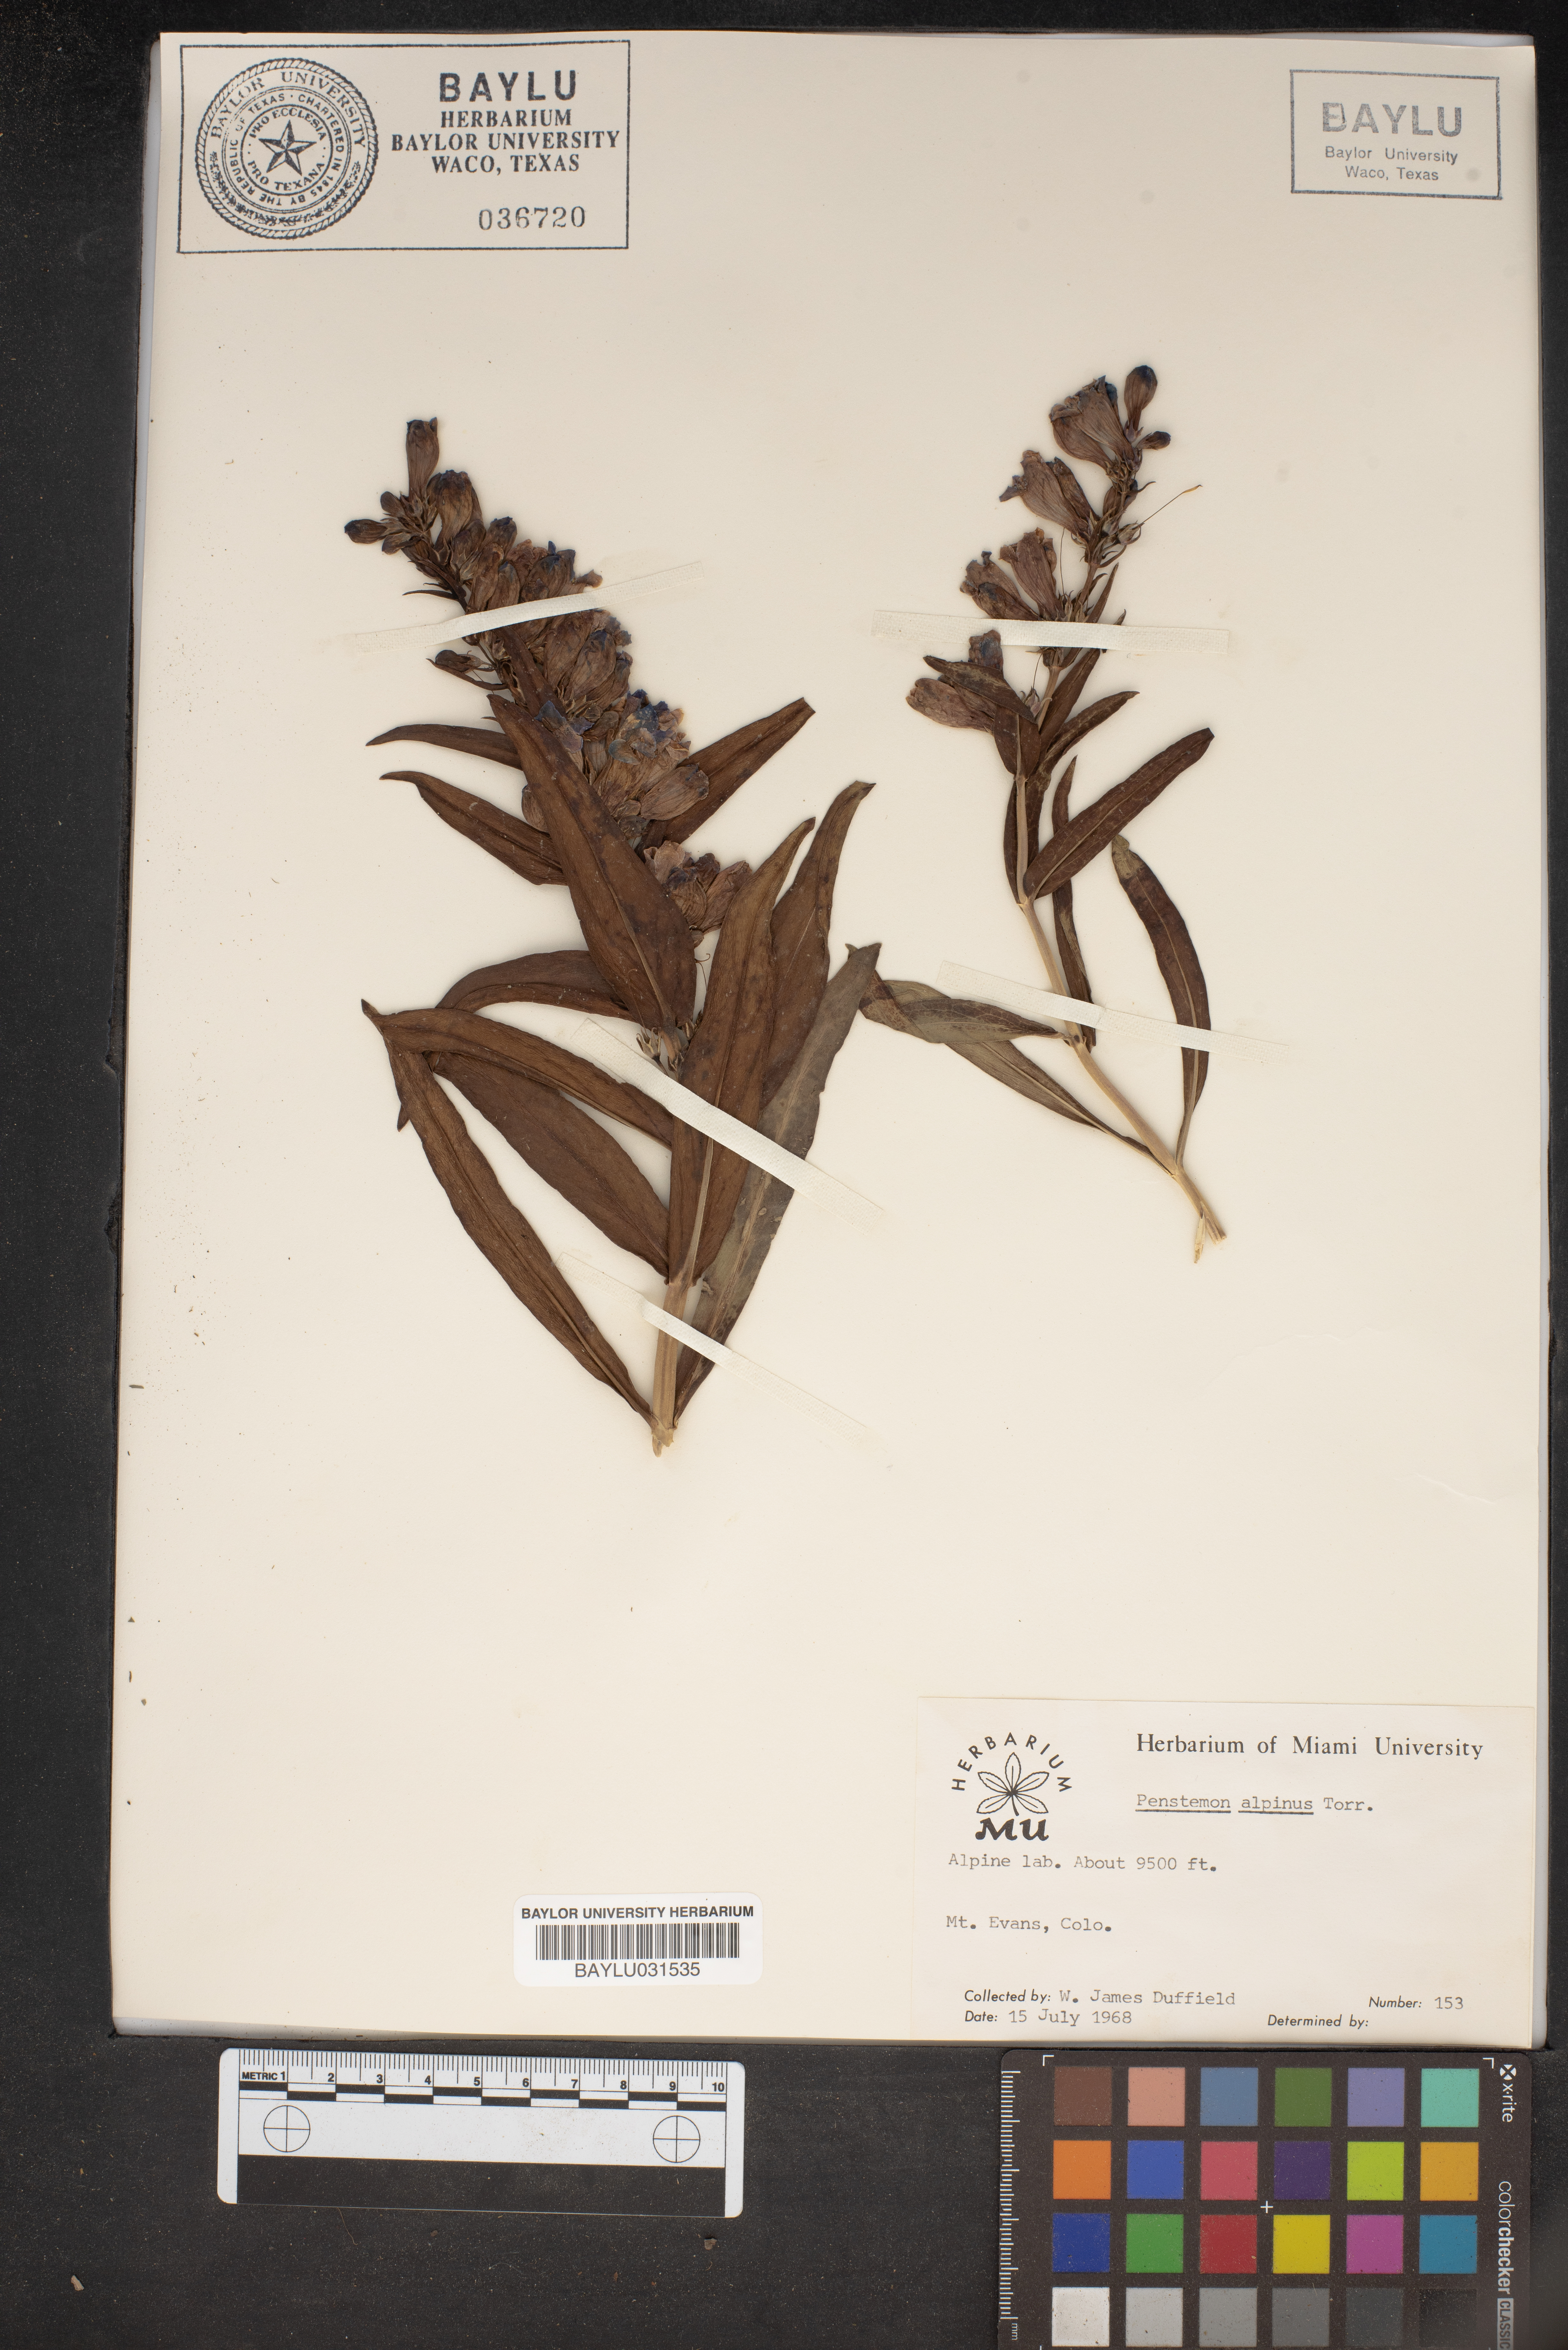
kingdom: Plantae
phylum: Tracheophyta
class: Magnoliopsida
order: Lamiales
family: Plantaginaceae
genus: Penstemon
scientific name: Penstemon glaber
